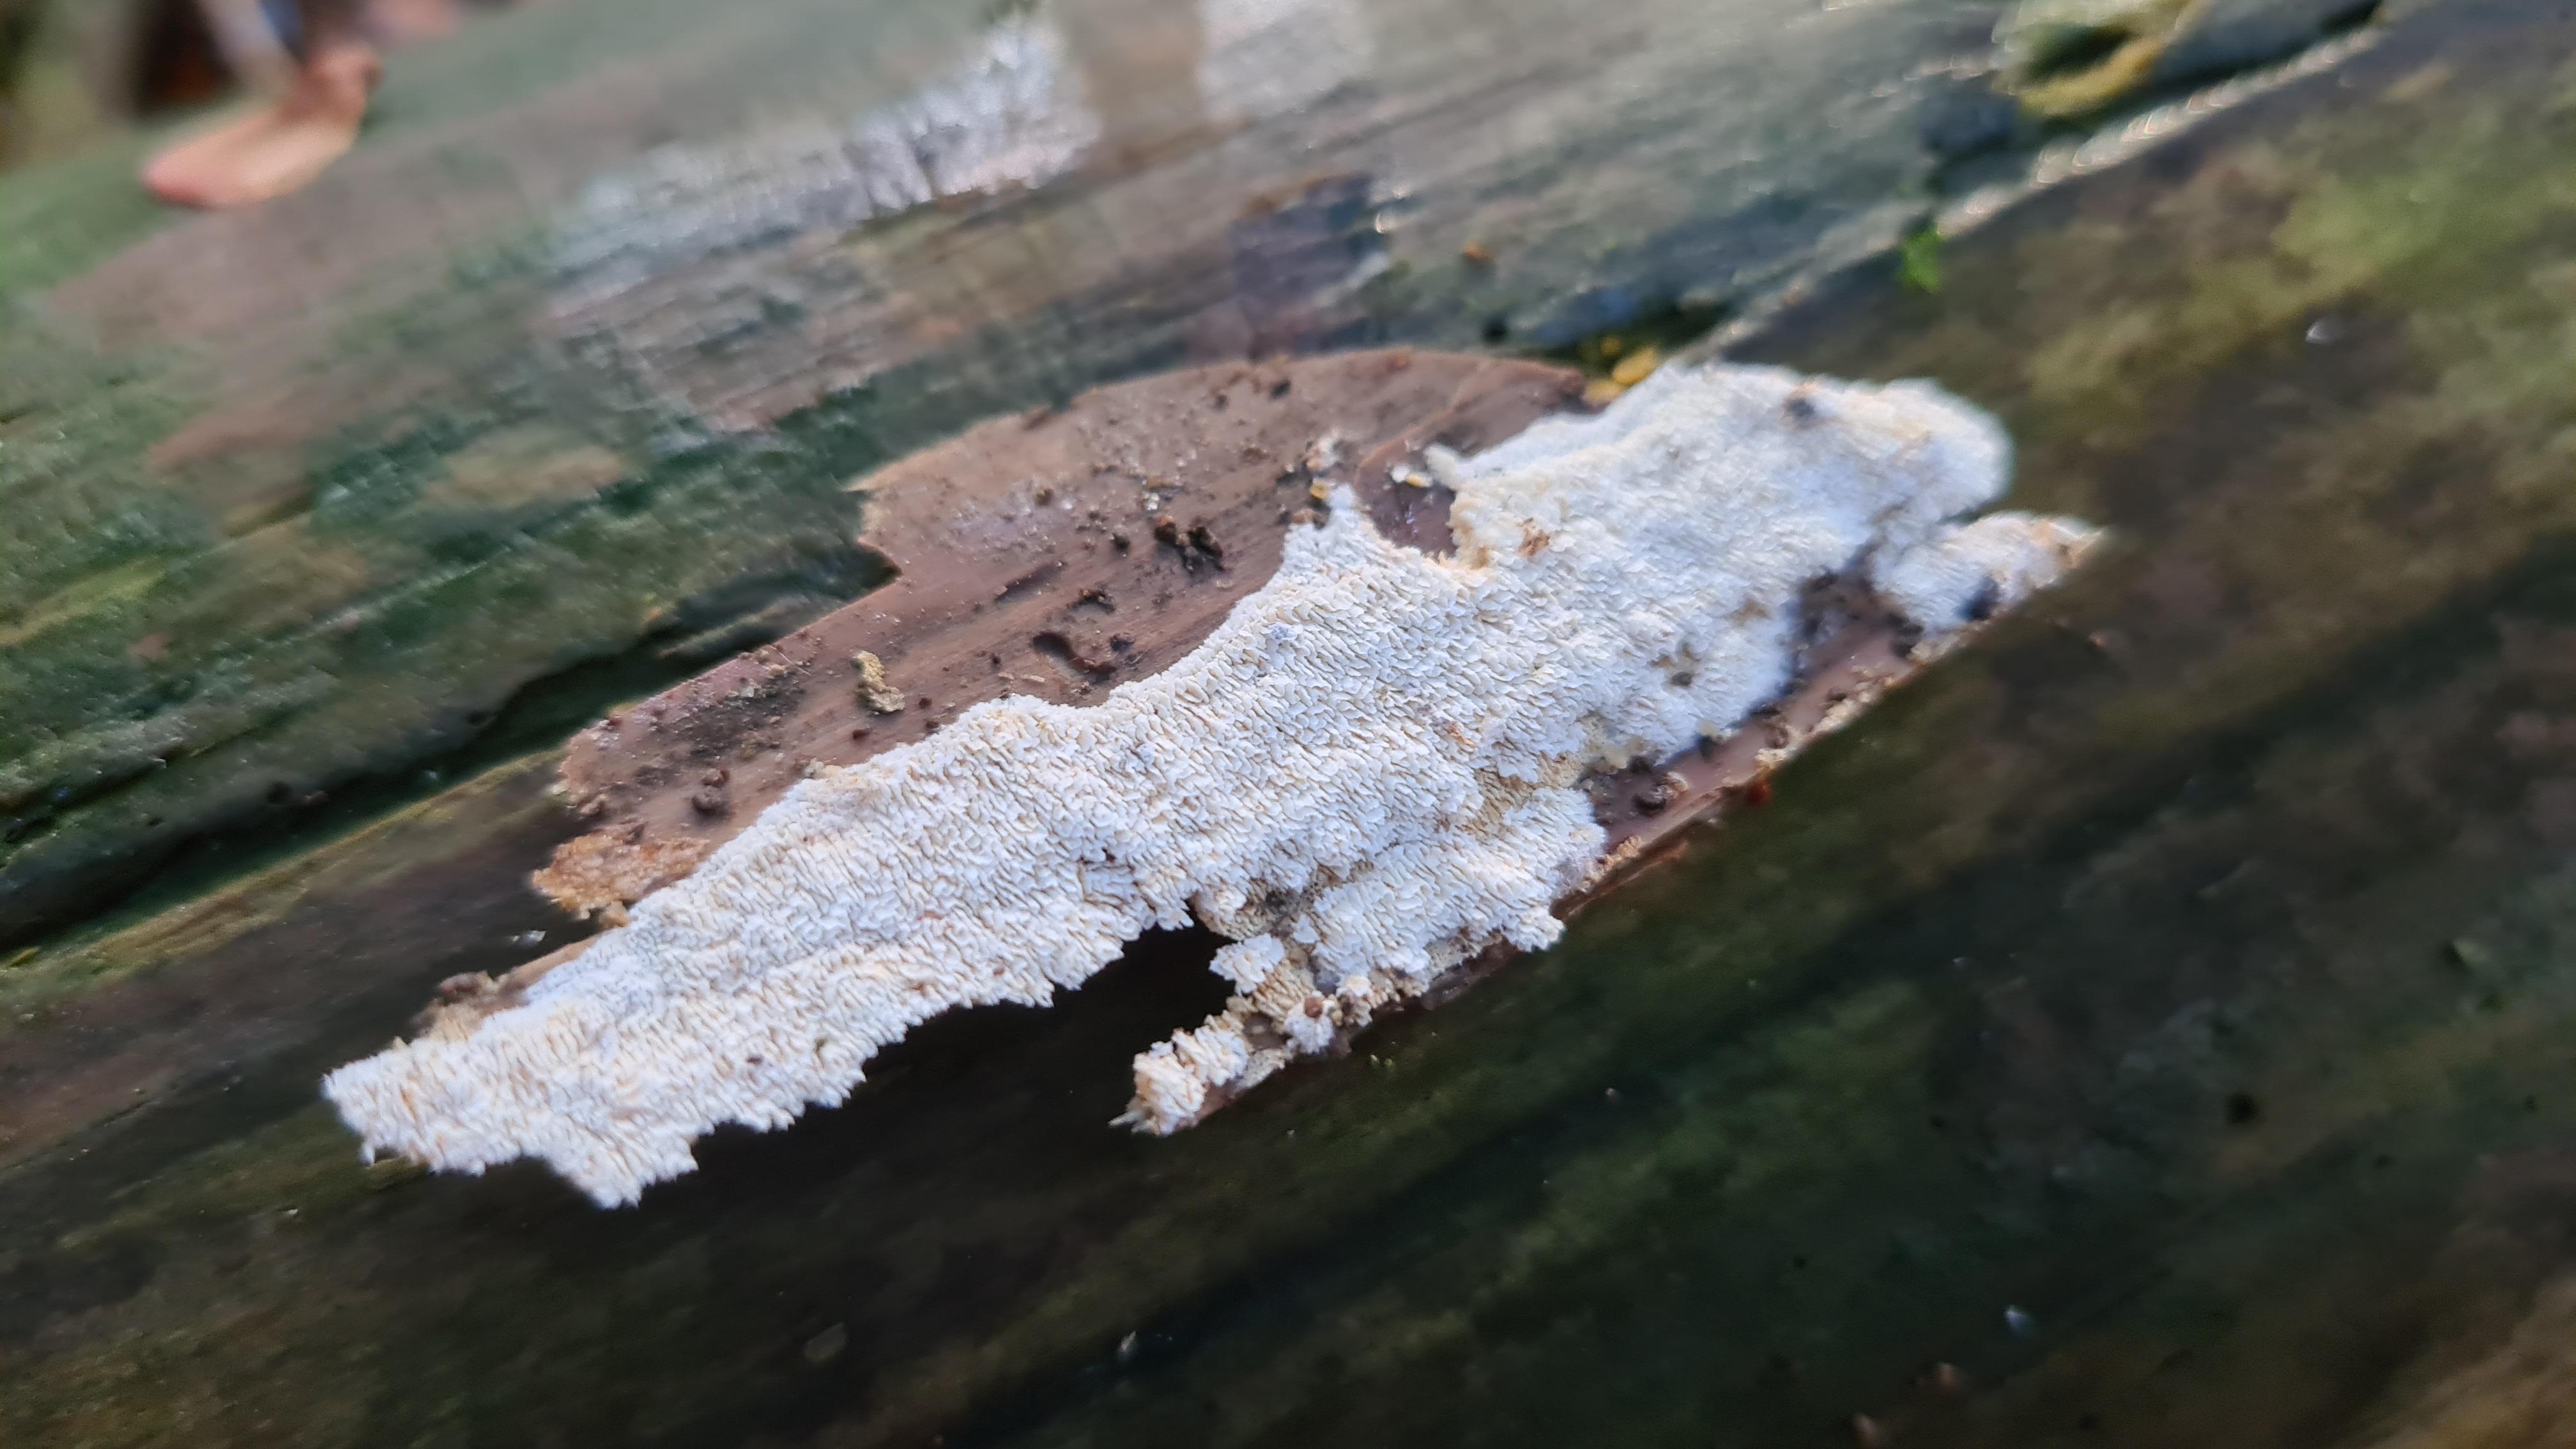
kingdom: Fungi
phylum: Basidiomycota
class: Agaricomycetes
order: Hymenochaetales
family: Schizoporaceae
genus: Xylodon
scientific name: Xylodon
